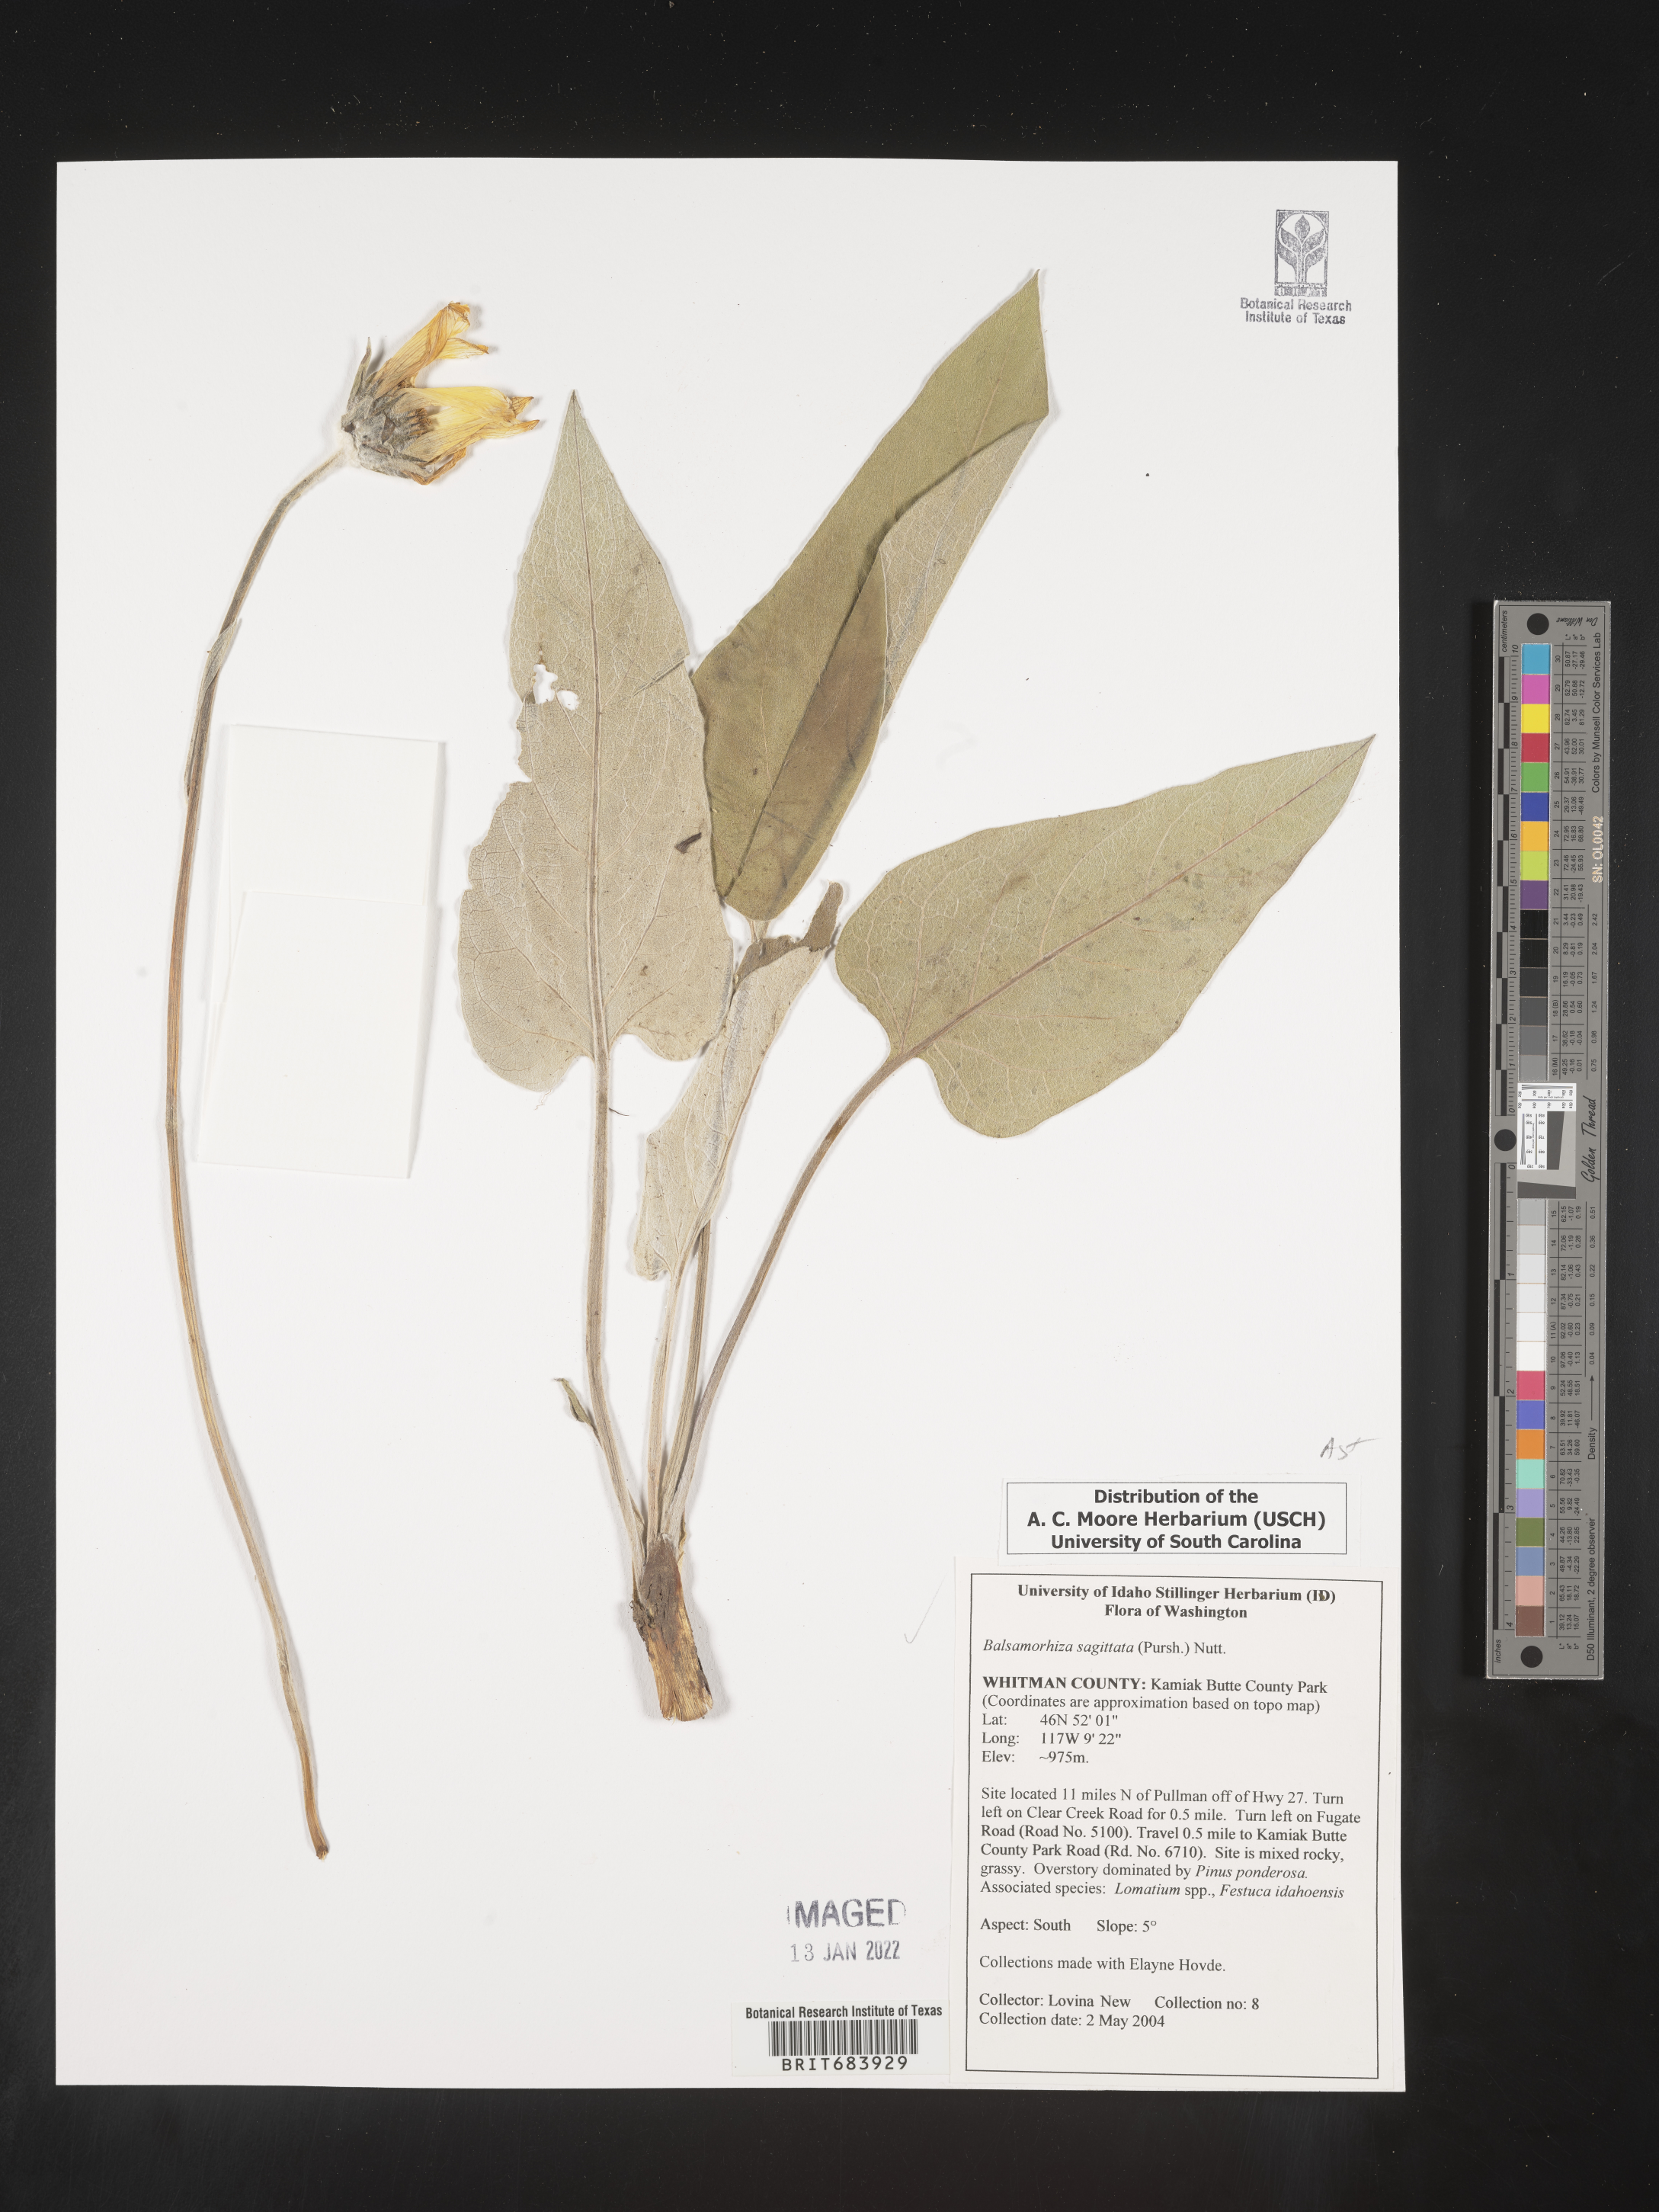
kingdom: Plantae
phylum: Tracheophyta
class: Magnoliopsida
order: Asterales
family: Asteraceae
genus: Wyethia
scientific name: Wyethia sagittata
